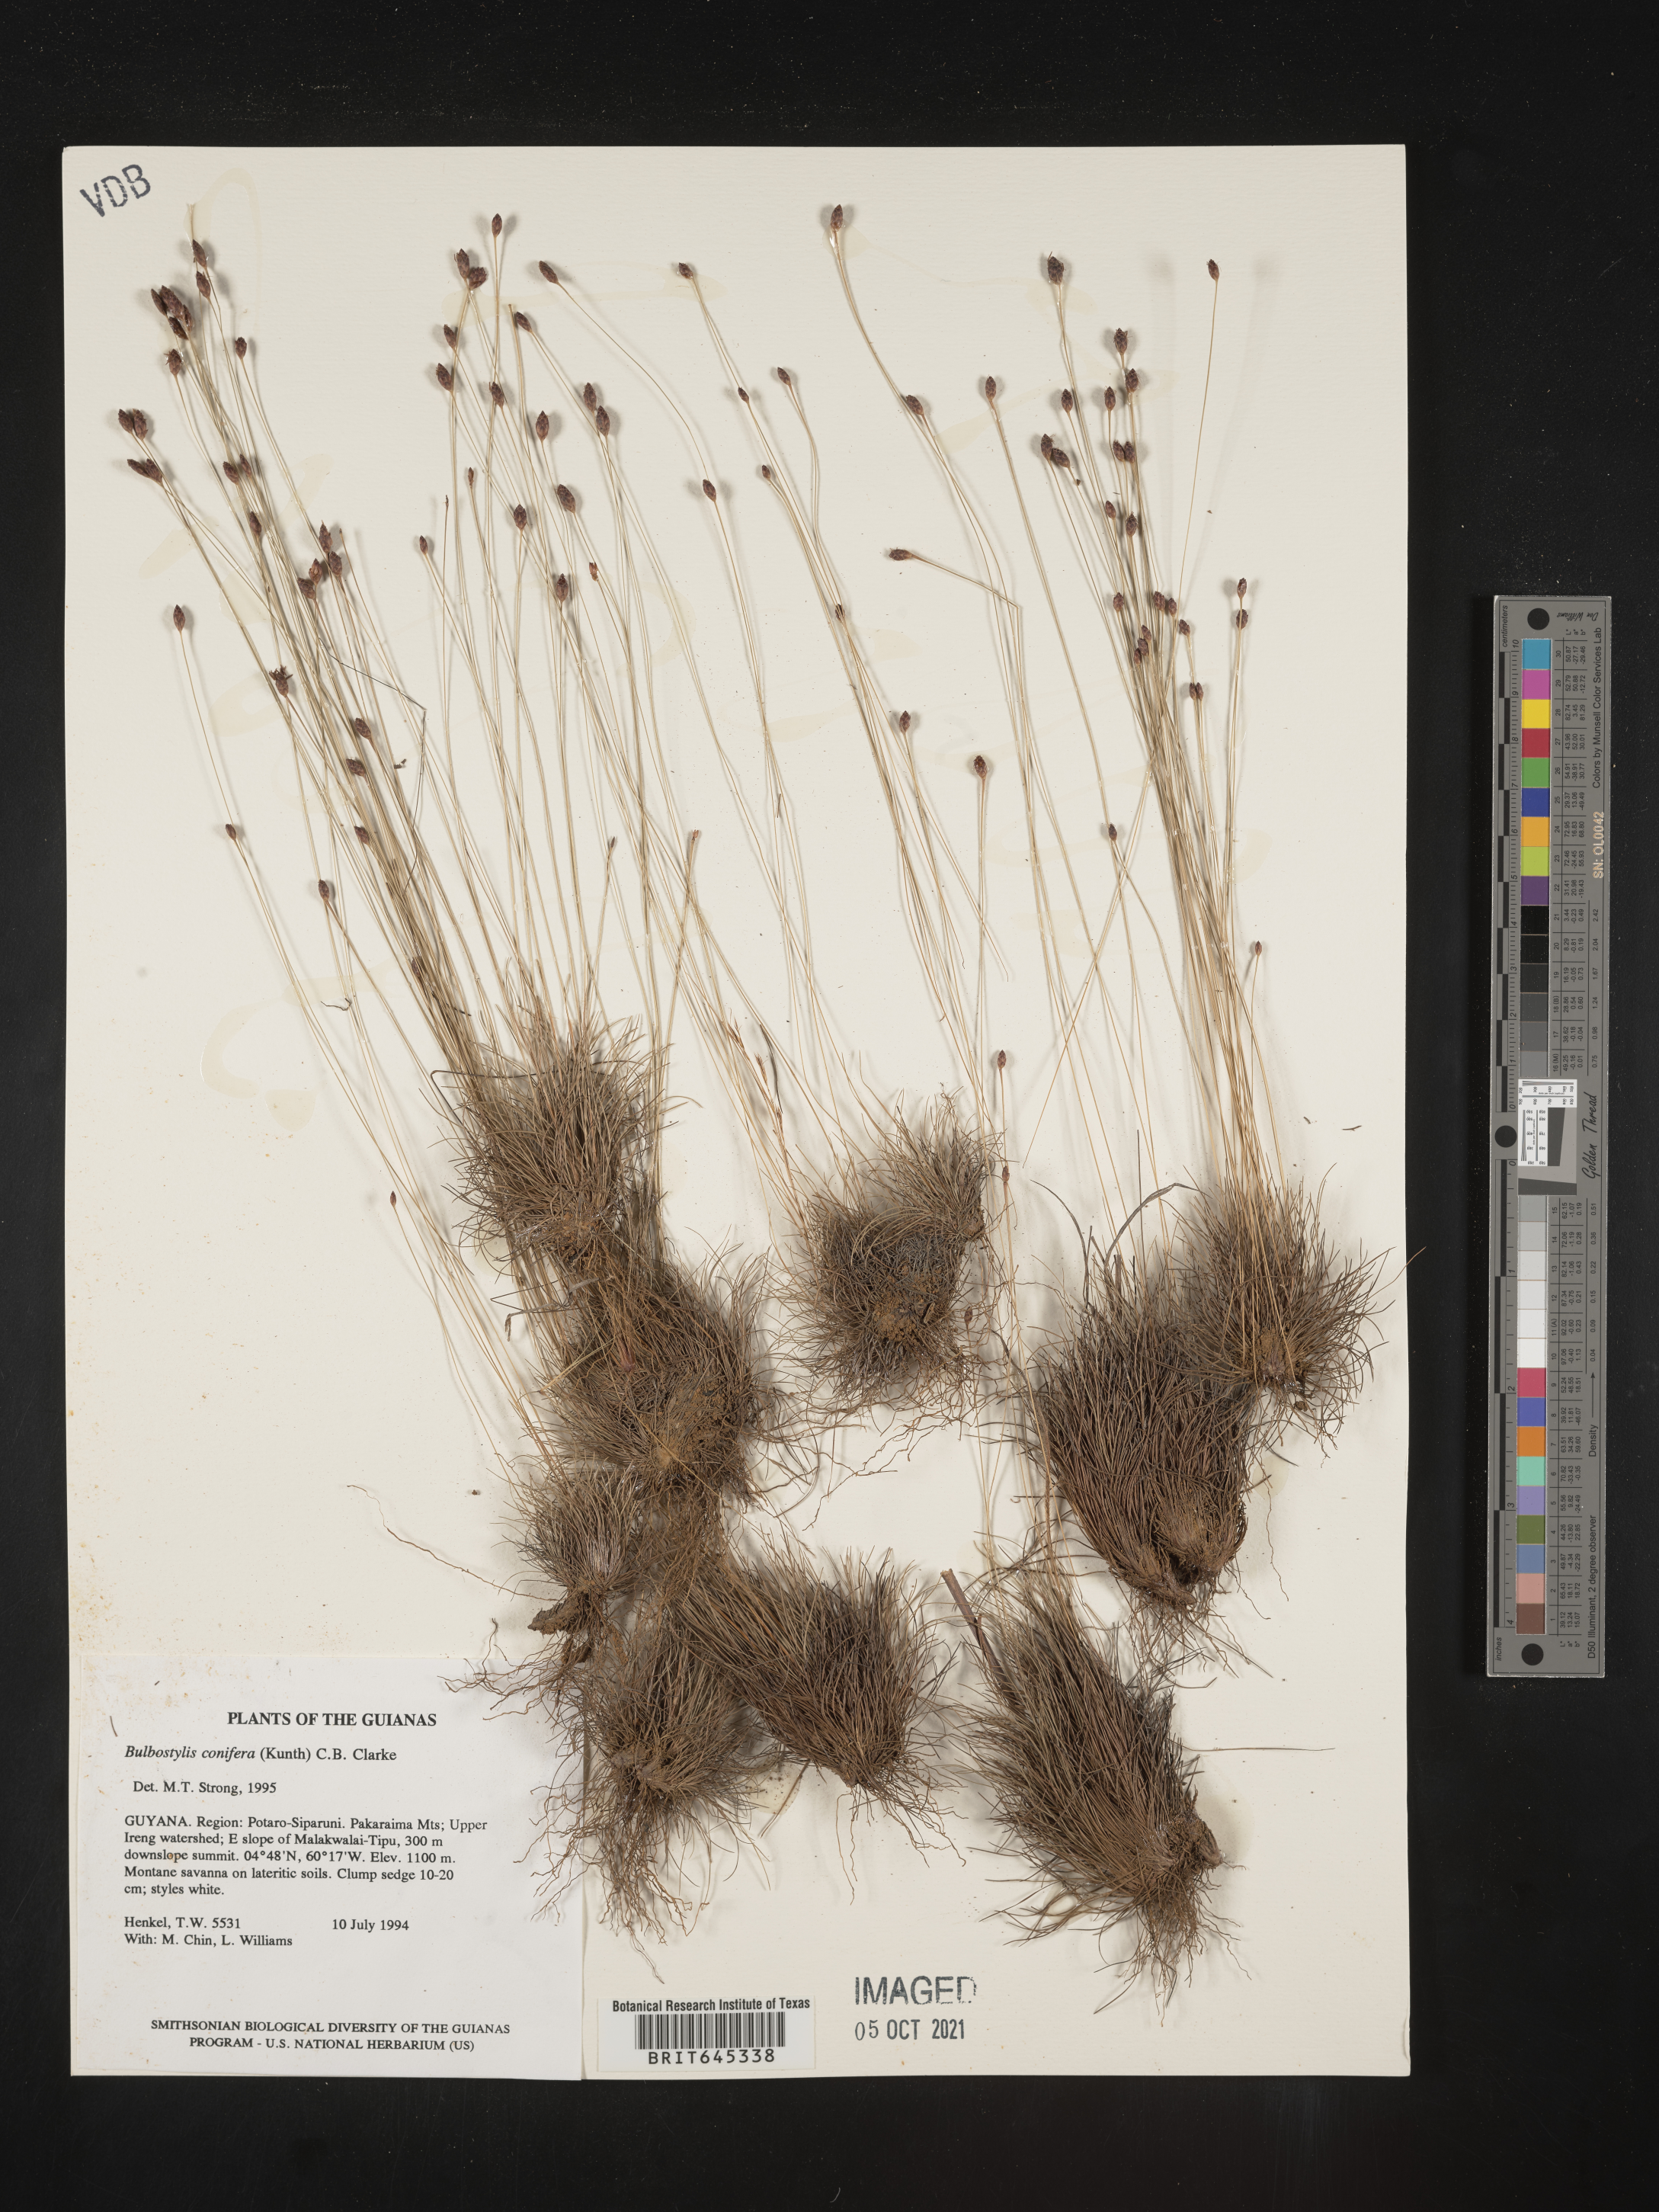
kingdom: Plantae
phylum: Tracheophyta
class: Liliopsida
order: Poales
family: Cyperaceae
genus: Bulbostylis
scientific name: Bulbostylis conifera
